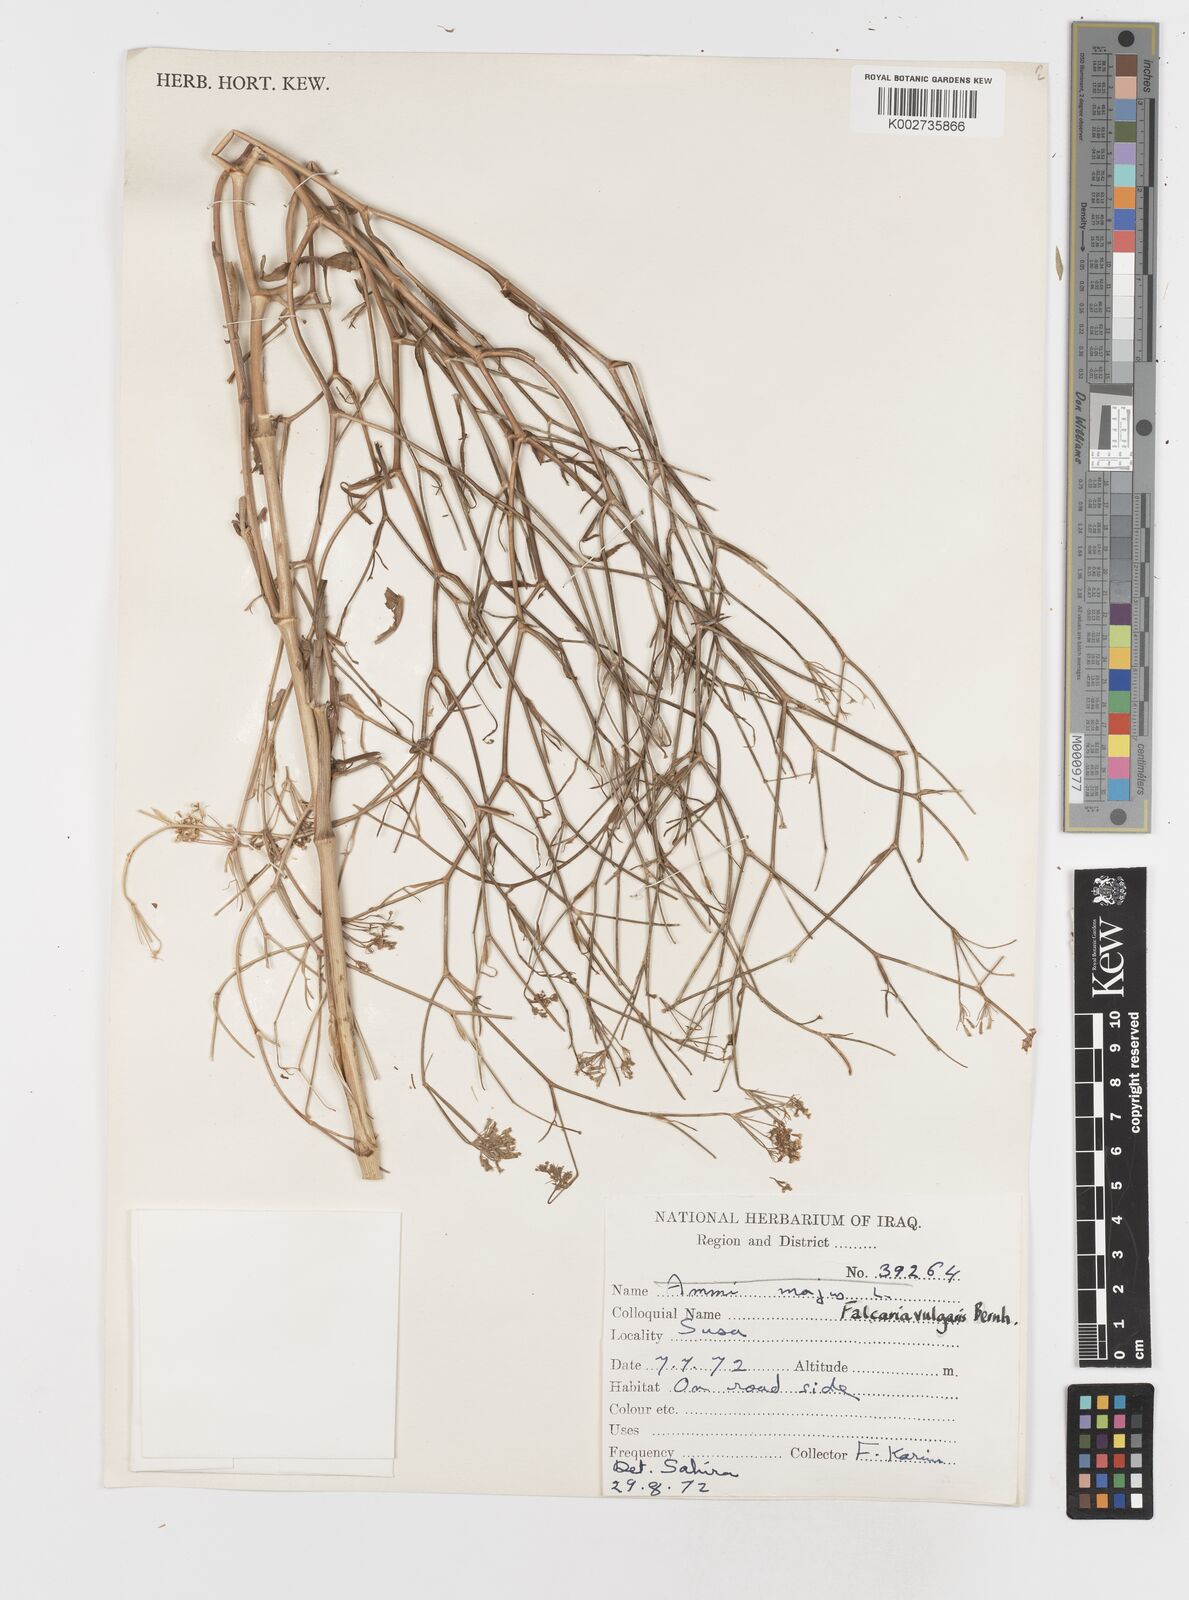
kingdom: Plantae
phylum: Tracheophyta
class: Magnoliopsida
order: Apiales
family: Apiaceae
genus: Falcaria
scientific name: Falcaria vulgaris
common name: Longleaf
